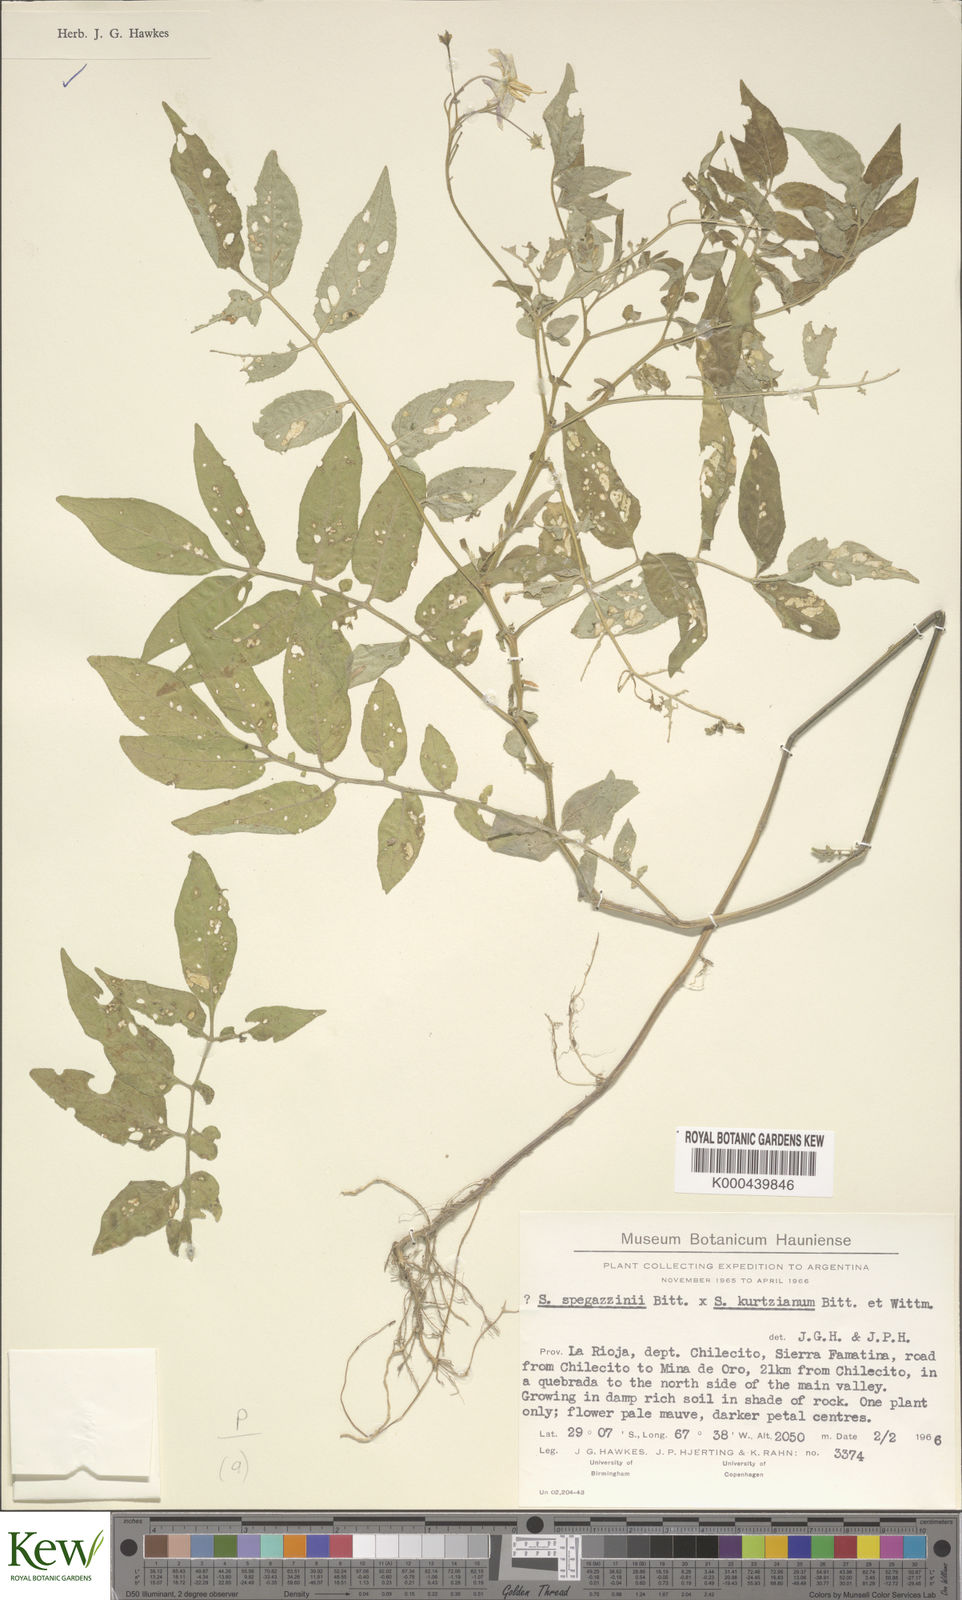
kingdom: Plantae
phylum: Tracheophyta
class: Magnoliopsida
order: Solanales
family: Solanaceae
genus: Solanum
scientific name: Solanum brevicaule
